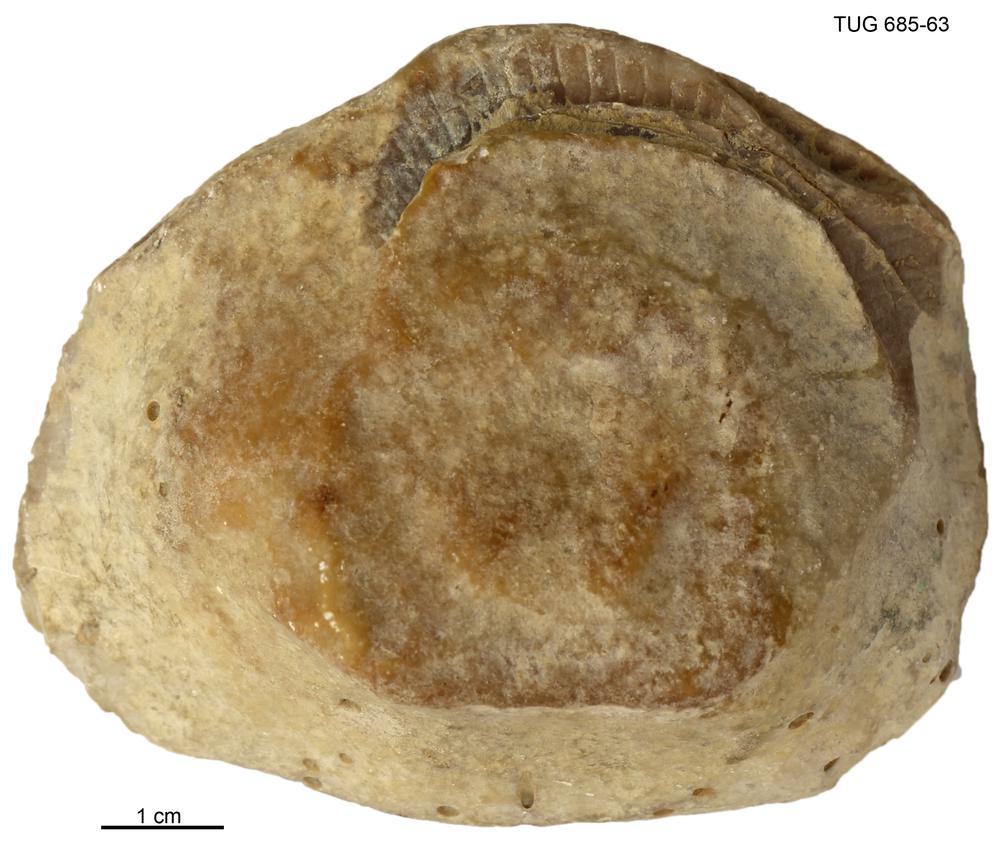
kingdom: Animalia
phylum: Cnidaria
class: Anthozoa
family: Kodonophyllidae
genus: Schlotheimophyllum
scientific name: Schlotheimophyllum
